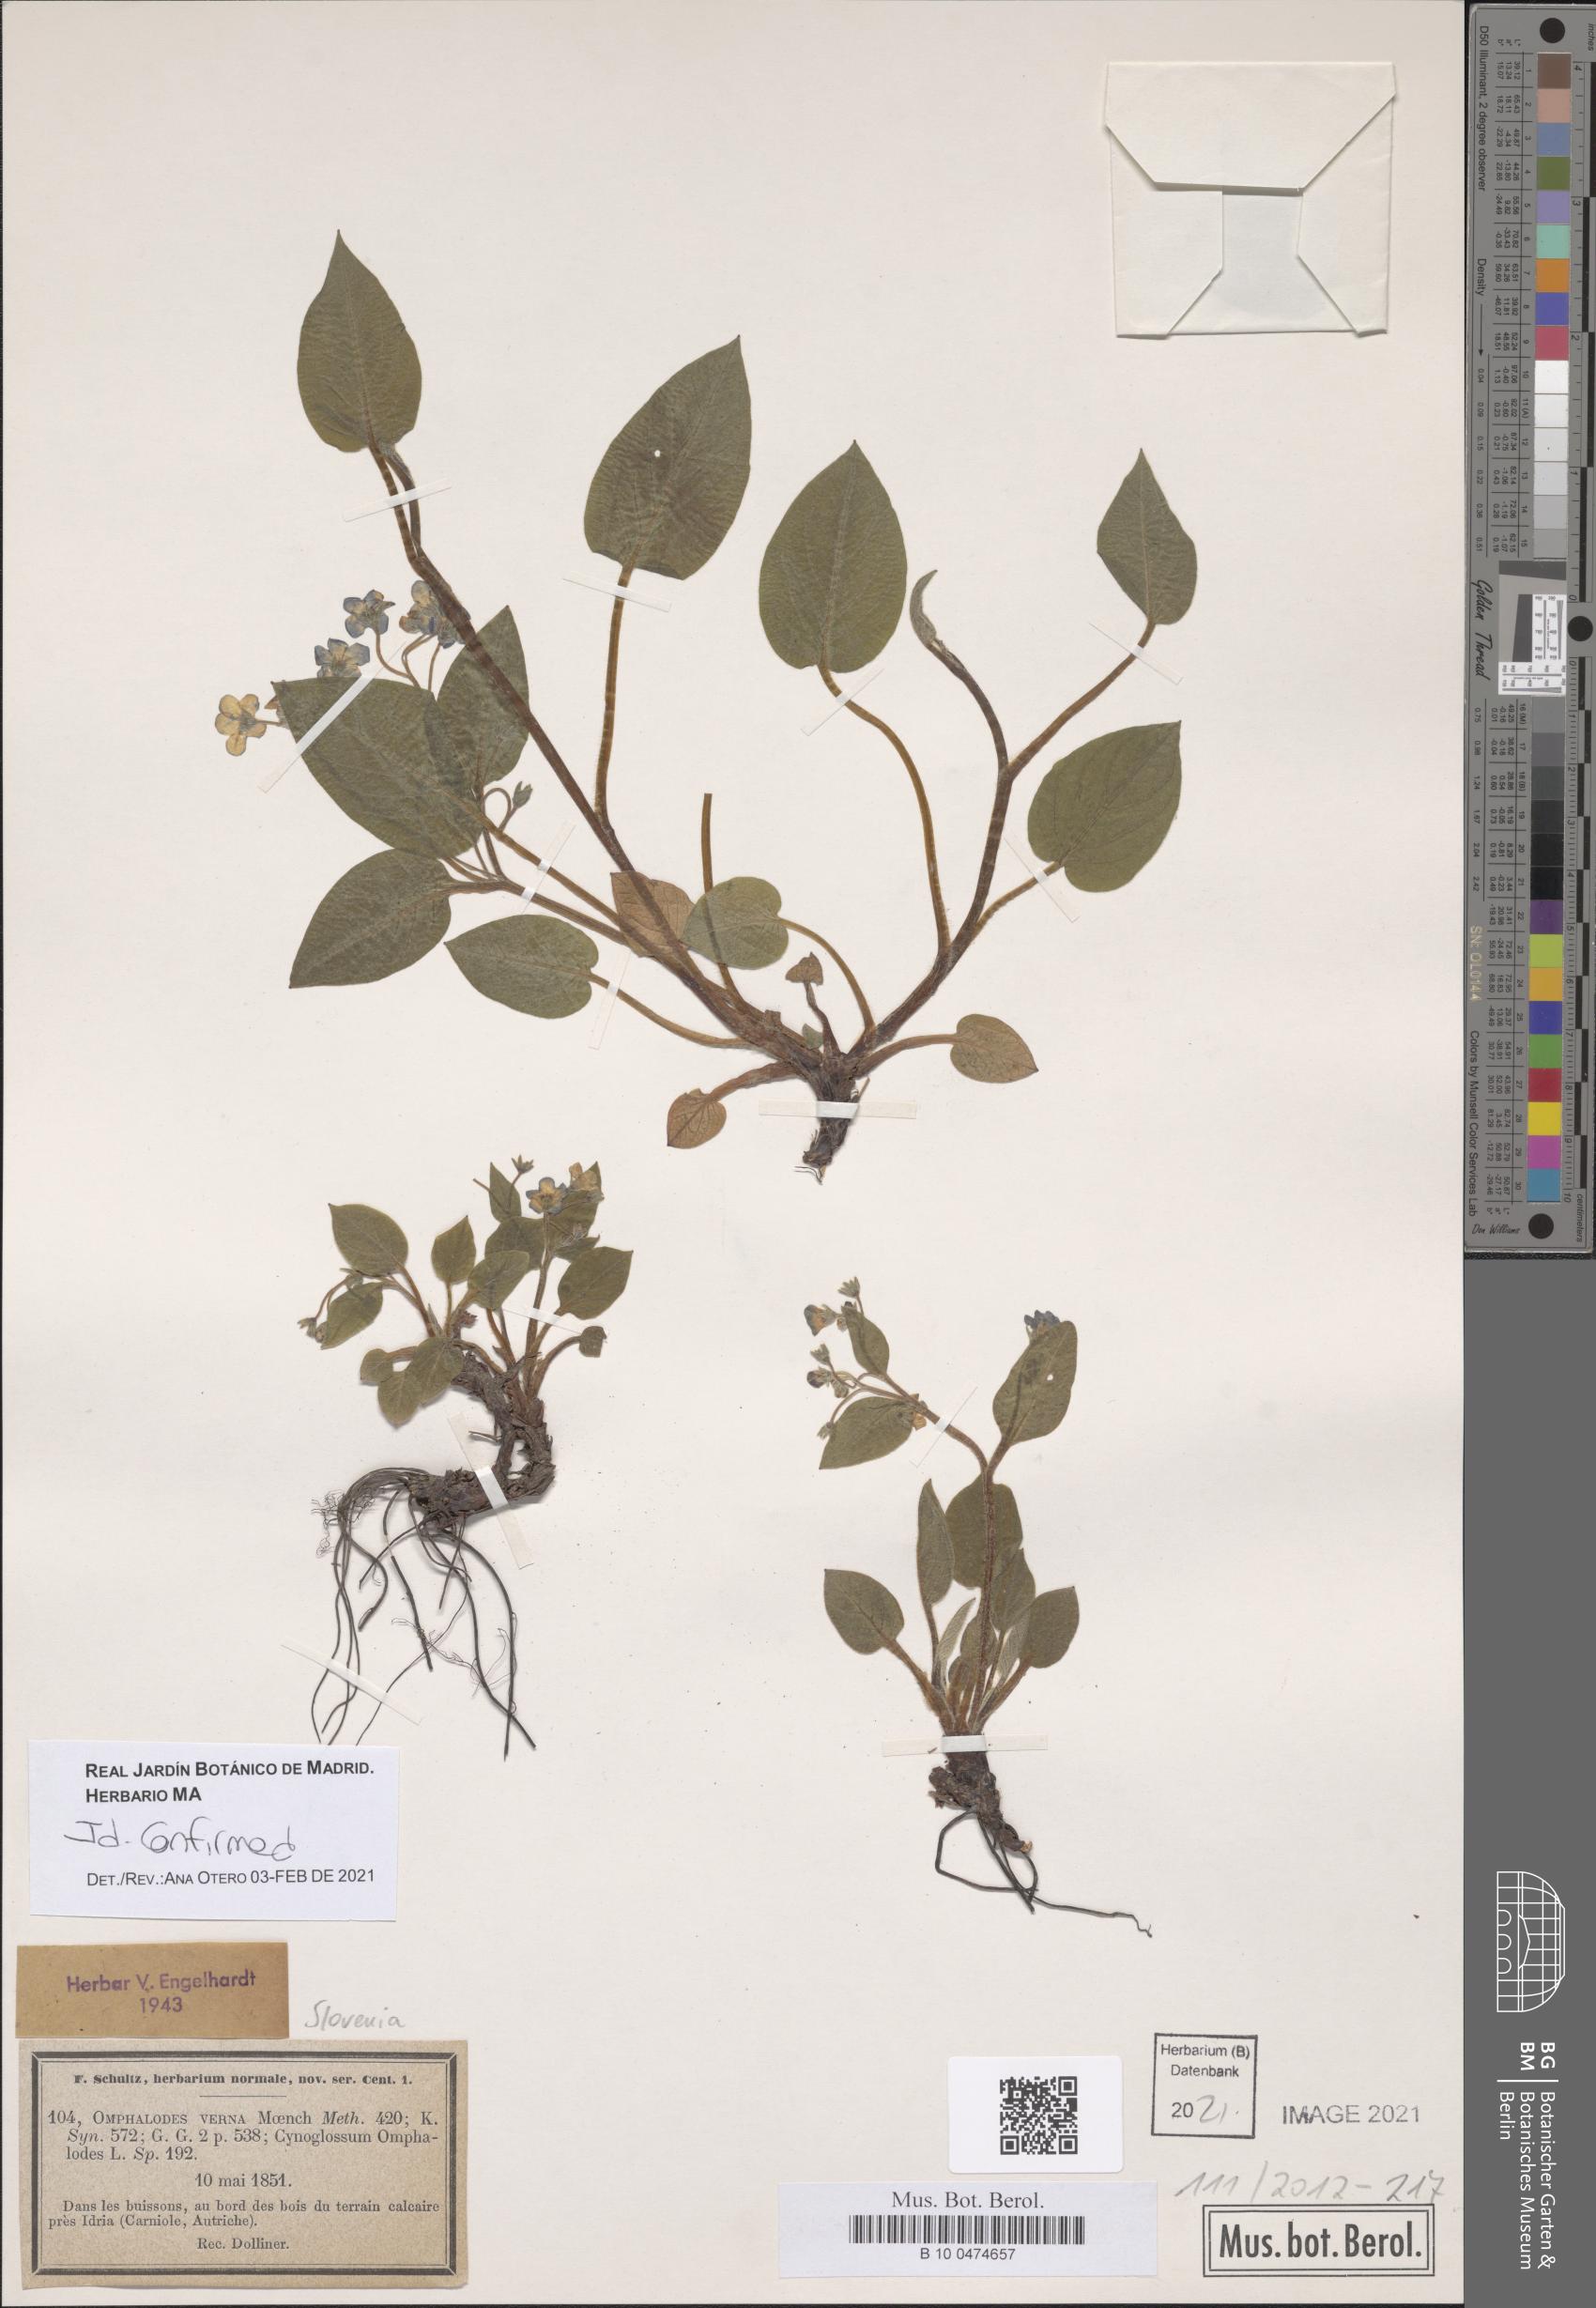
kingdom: Plantae
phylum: Tracheophyta
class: Magnoliopsida
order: Boraginales
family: Boraginaceae
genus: Omphalodes
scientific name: Omphalodes verna
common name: Blue-eyed-mary
